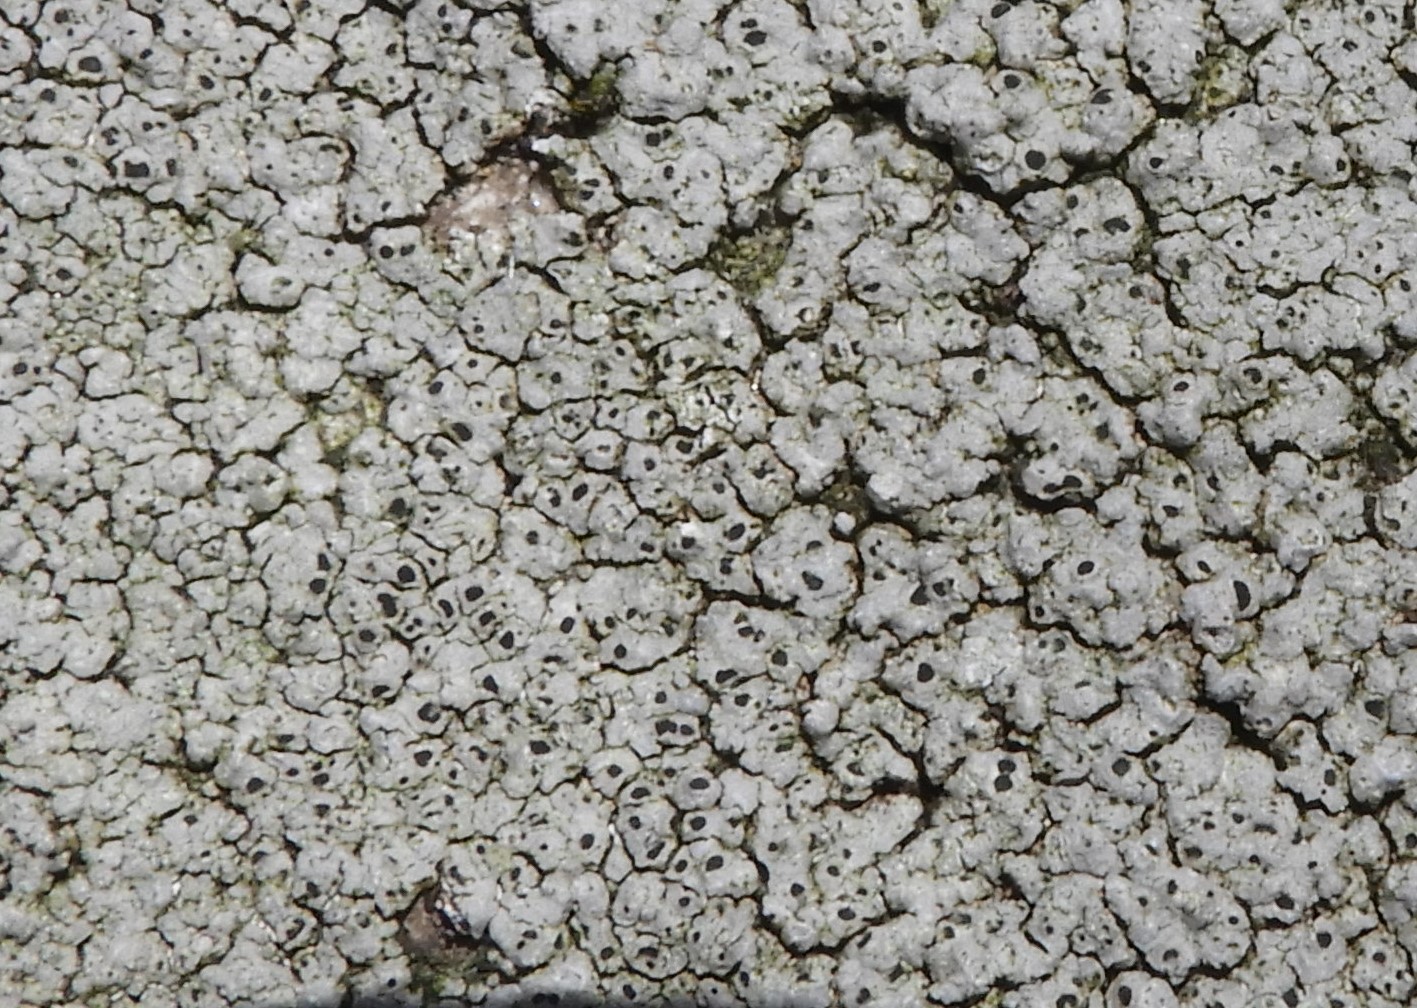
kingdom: Fungi
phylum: Ascomycota
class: Lecanoromycetes
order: Pertusariales
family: Megasporaceae
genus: Aspicilia
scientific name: Aspicilia cinerea
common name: grå hulskivelav
